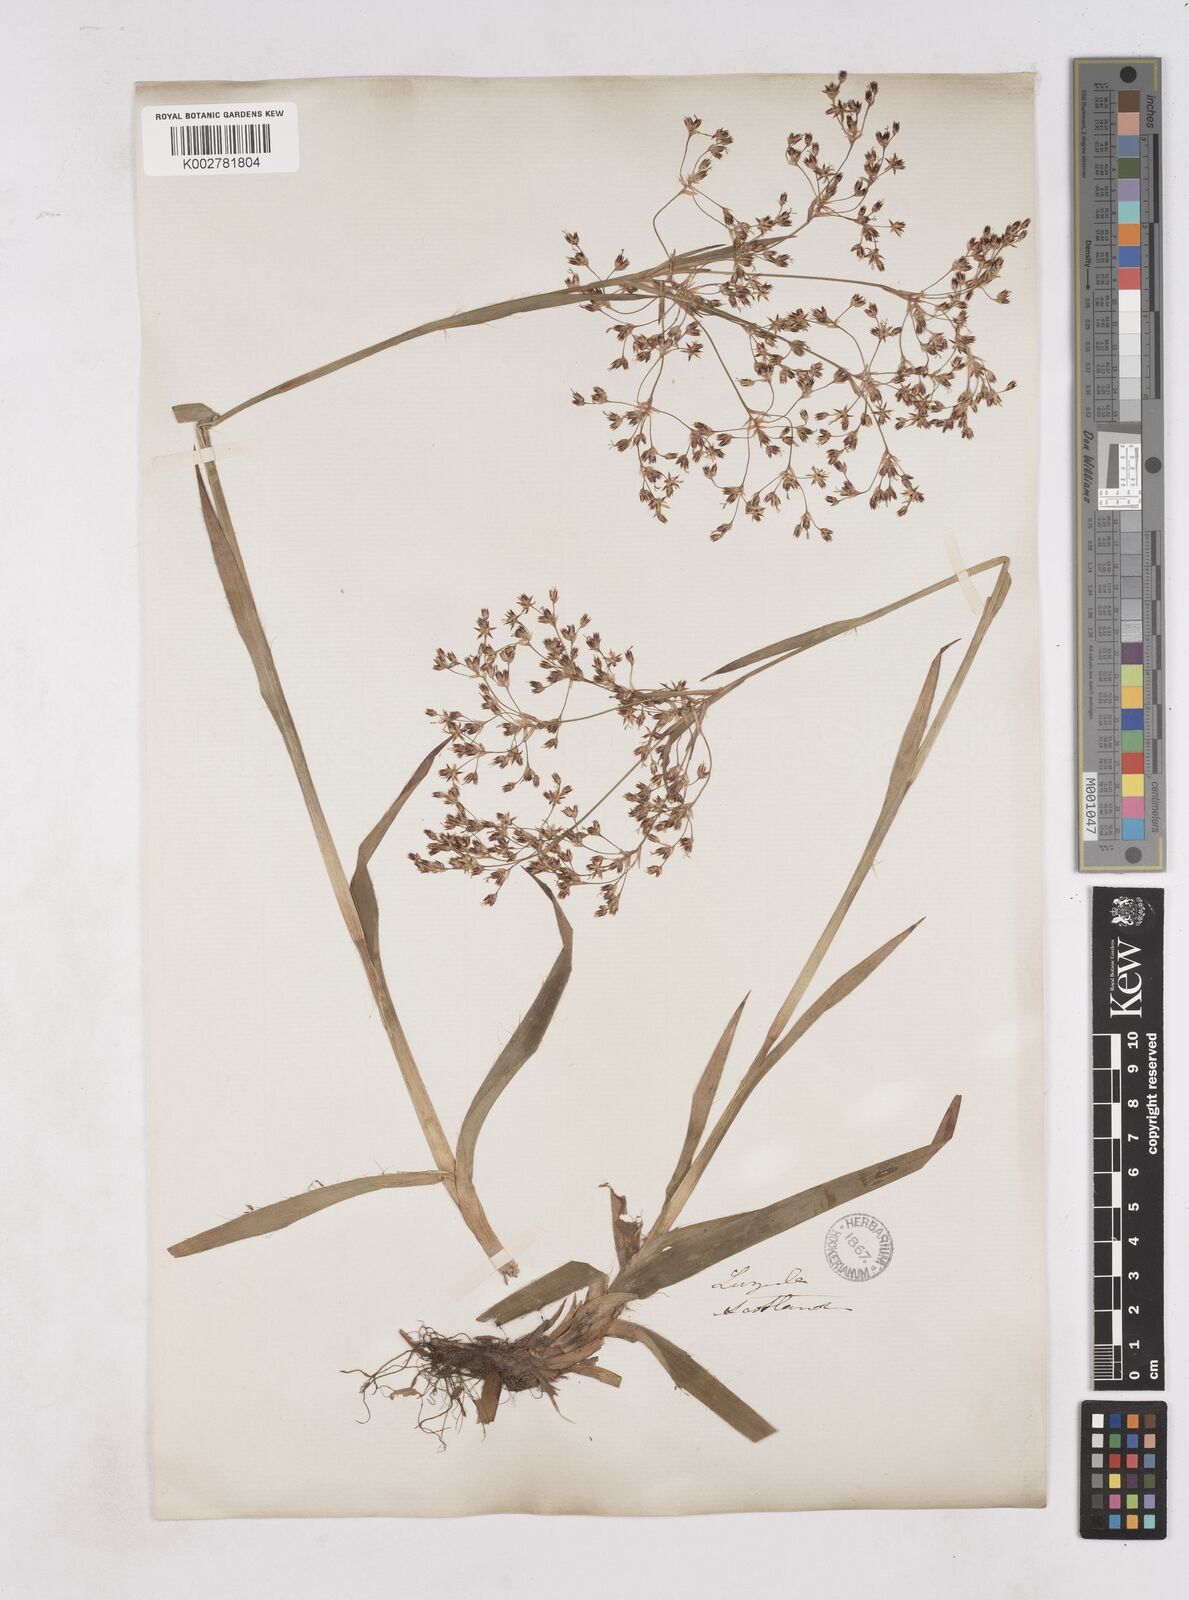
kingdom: Plantae
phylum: Tracheophyta
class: Liliopsida
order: Poales
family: Juncaceae
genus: Luzula
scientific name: Luzula sylvatica
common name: Great wood-rush
